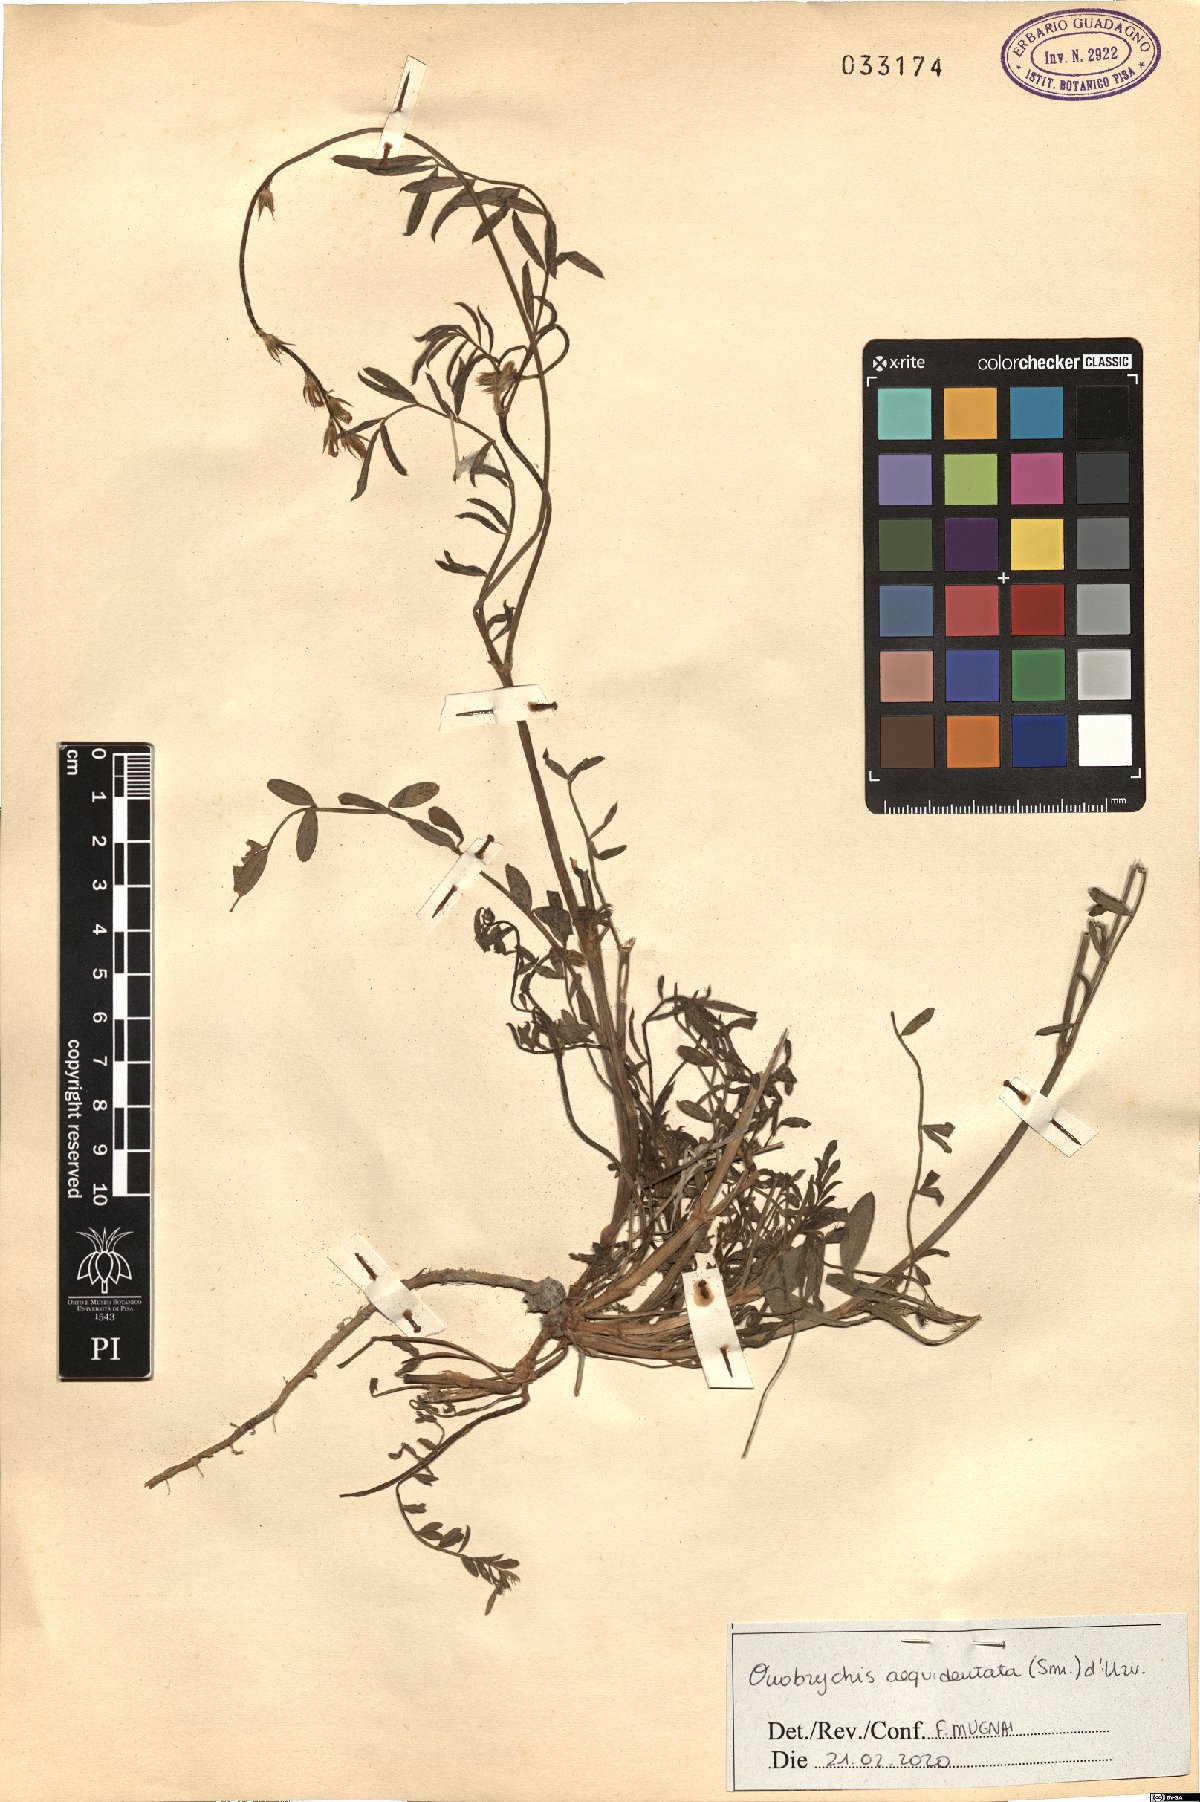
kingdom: Plantae
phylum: Tracheophyta
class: Magnoliopsida
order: Fabales
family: Fabaceae
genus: Onobrychis
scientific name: Onobrychis aequidentata
